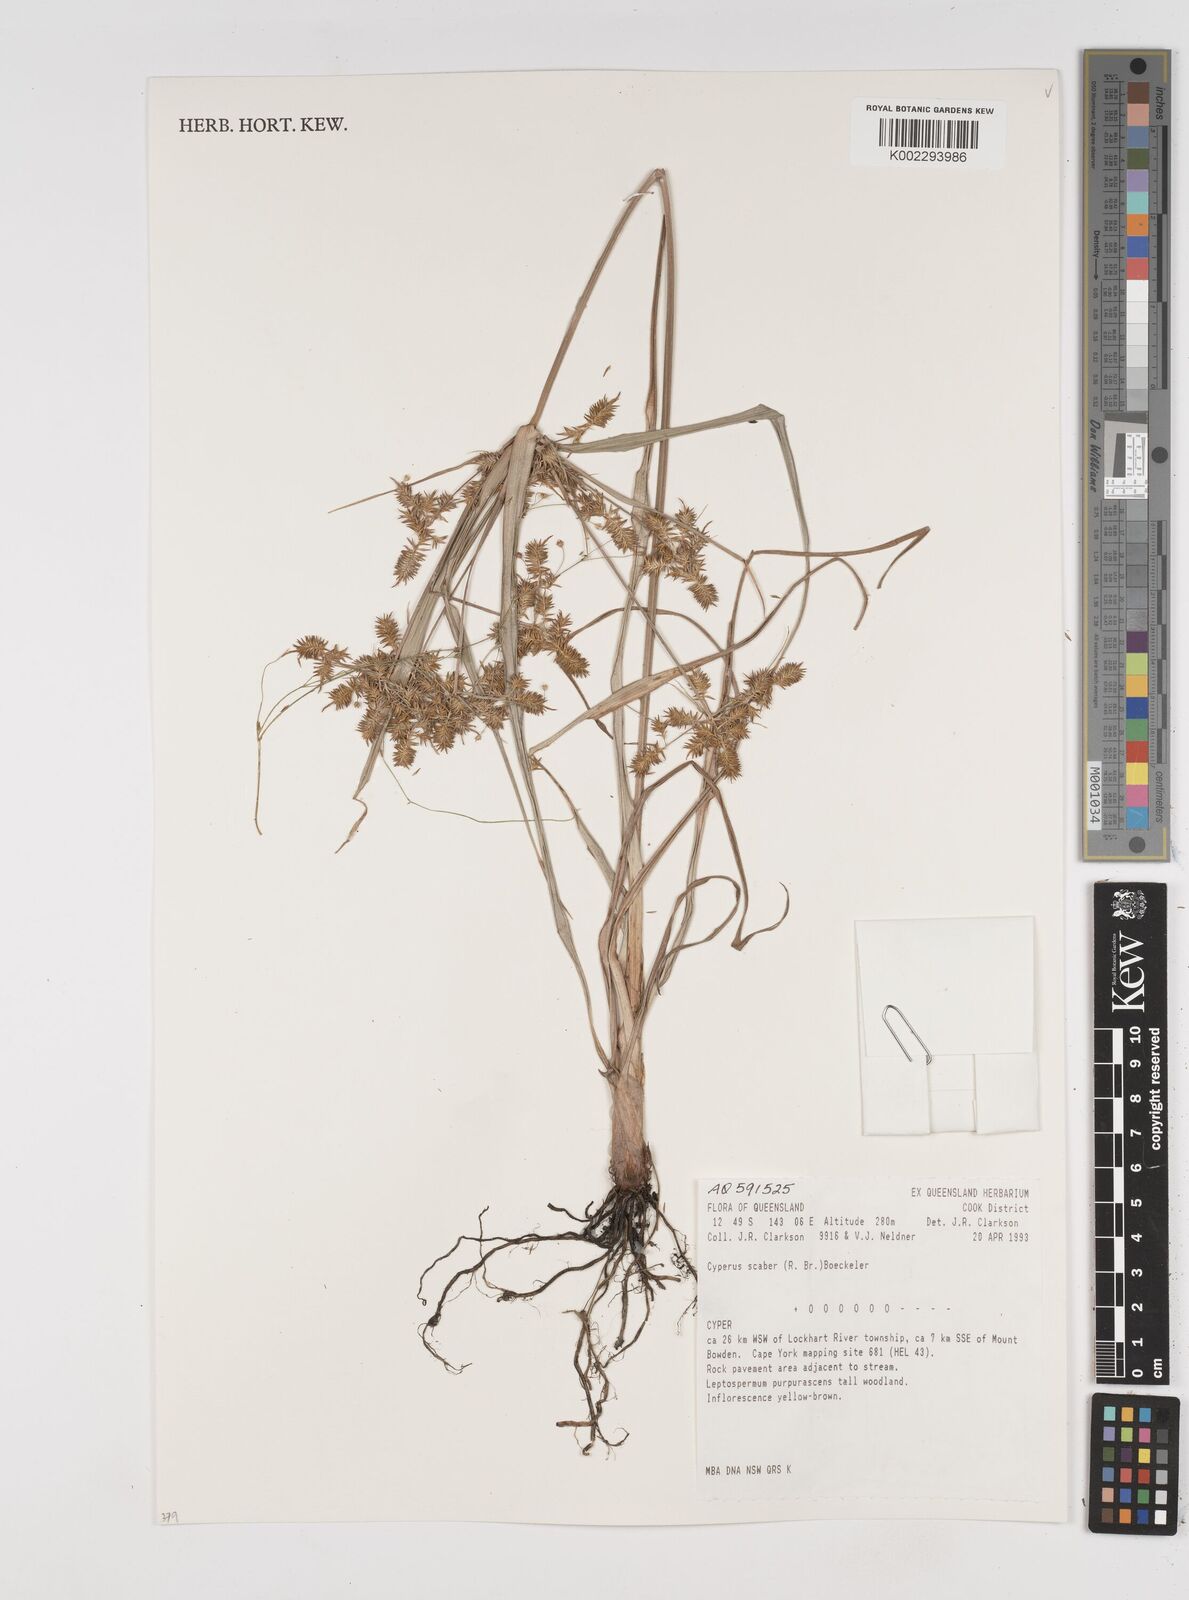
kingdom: Plantae
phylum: Tracheophyta
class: Liliopsida
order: Poales
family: Cyperaceae
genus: Cyperus
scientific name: Cyperus scaber
